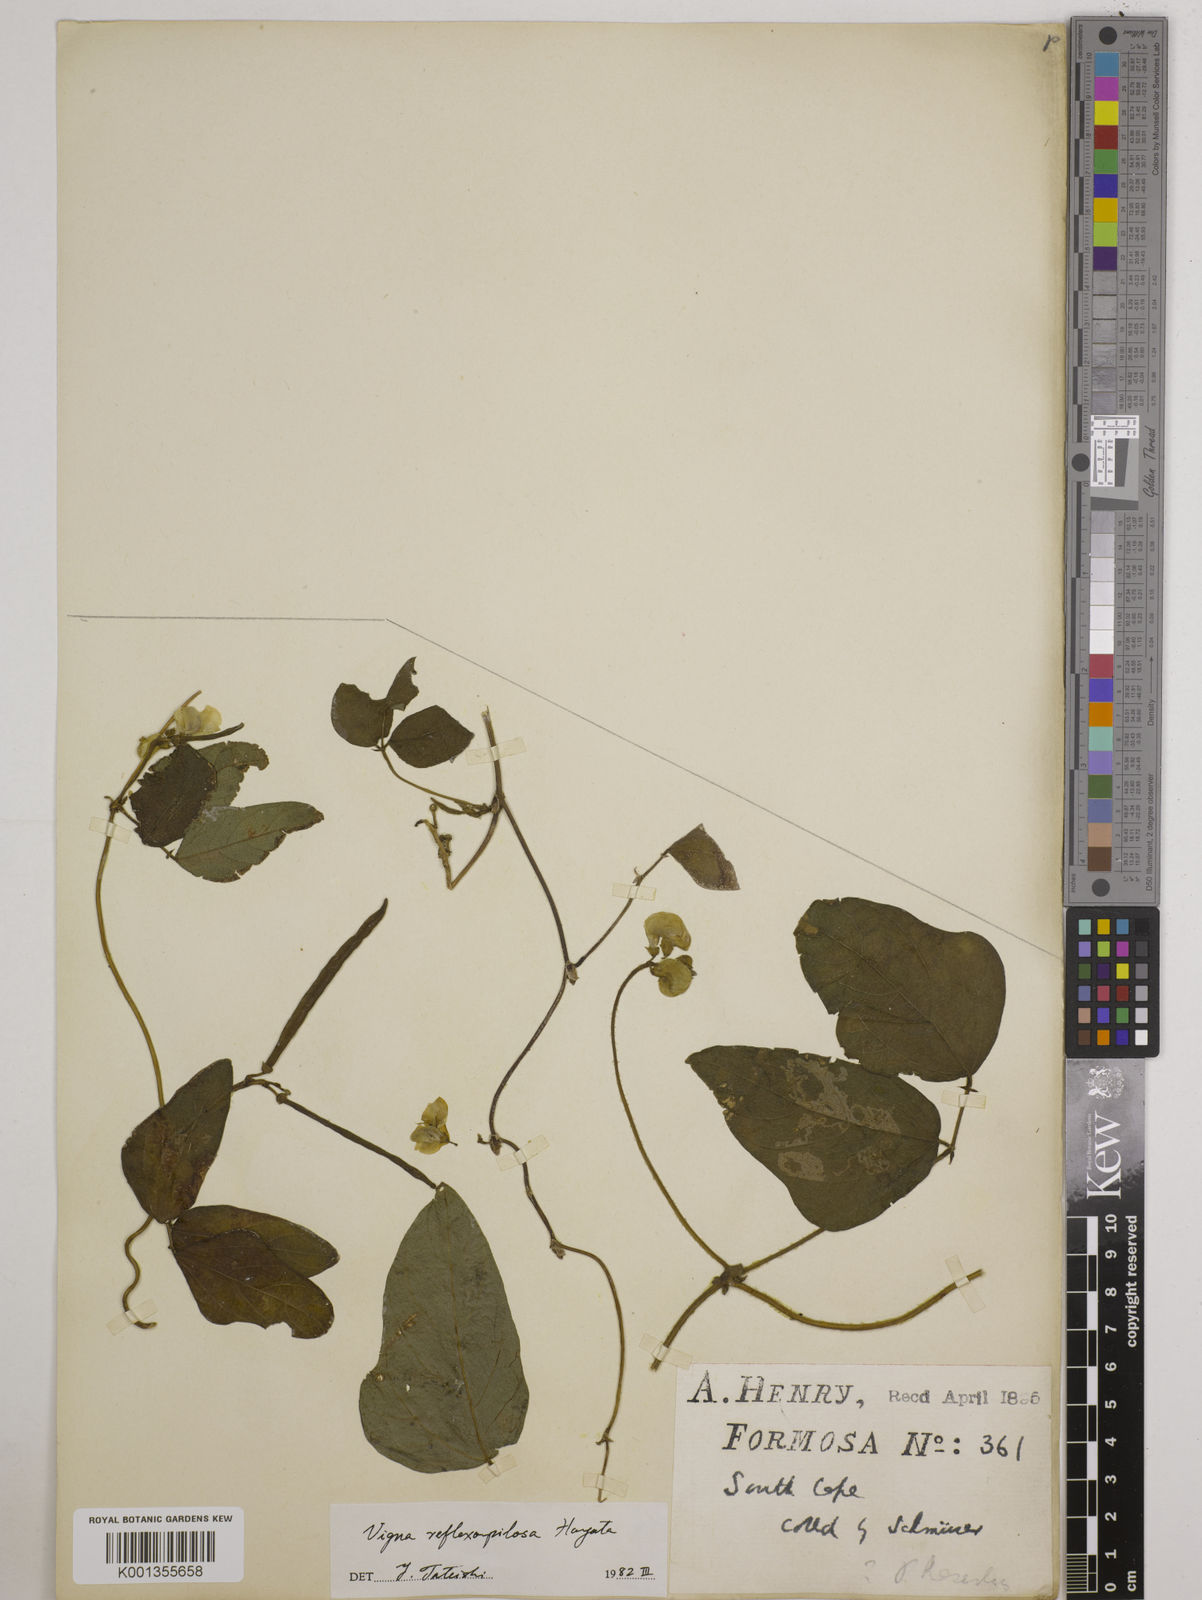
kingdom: Plantae
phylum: Tracheophyta
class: Magnoliopsida
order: Fabales
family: Fabaceae
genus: Vigna
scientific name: Vigna reflexopilosa
